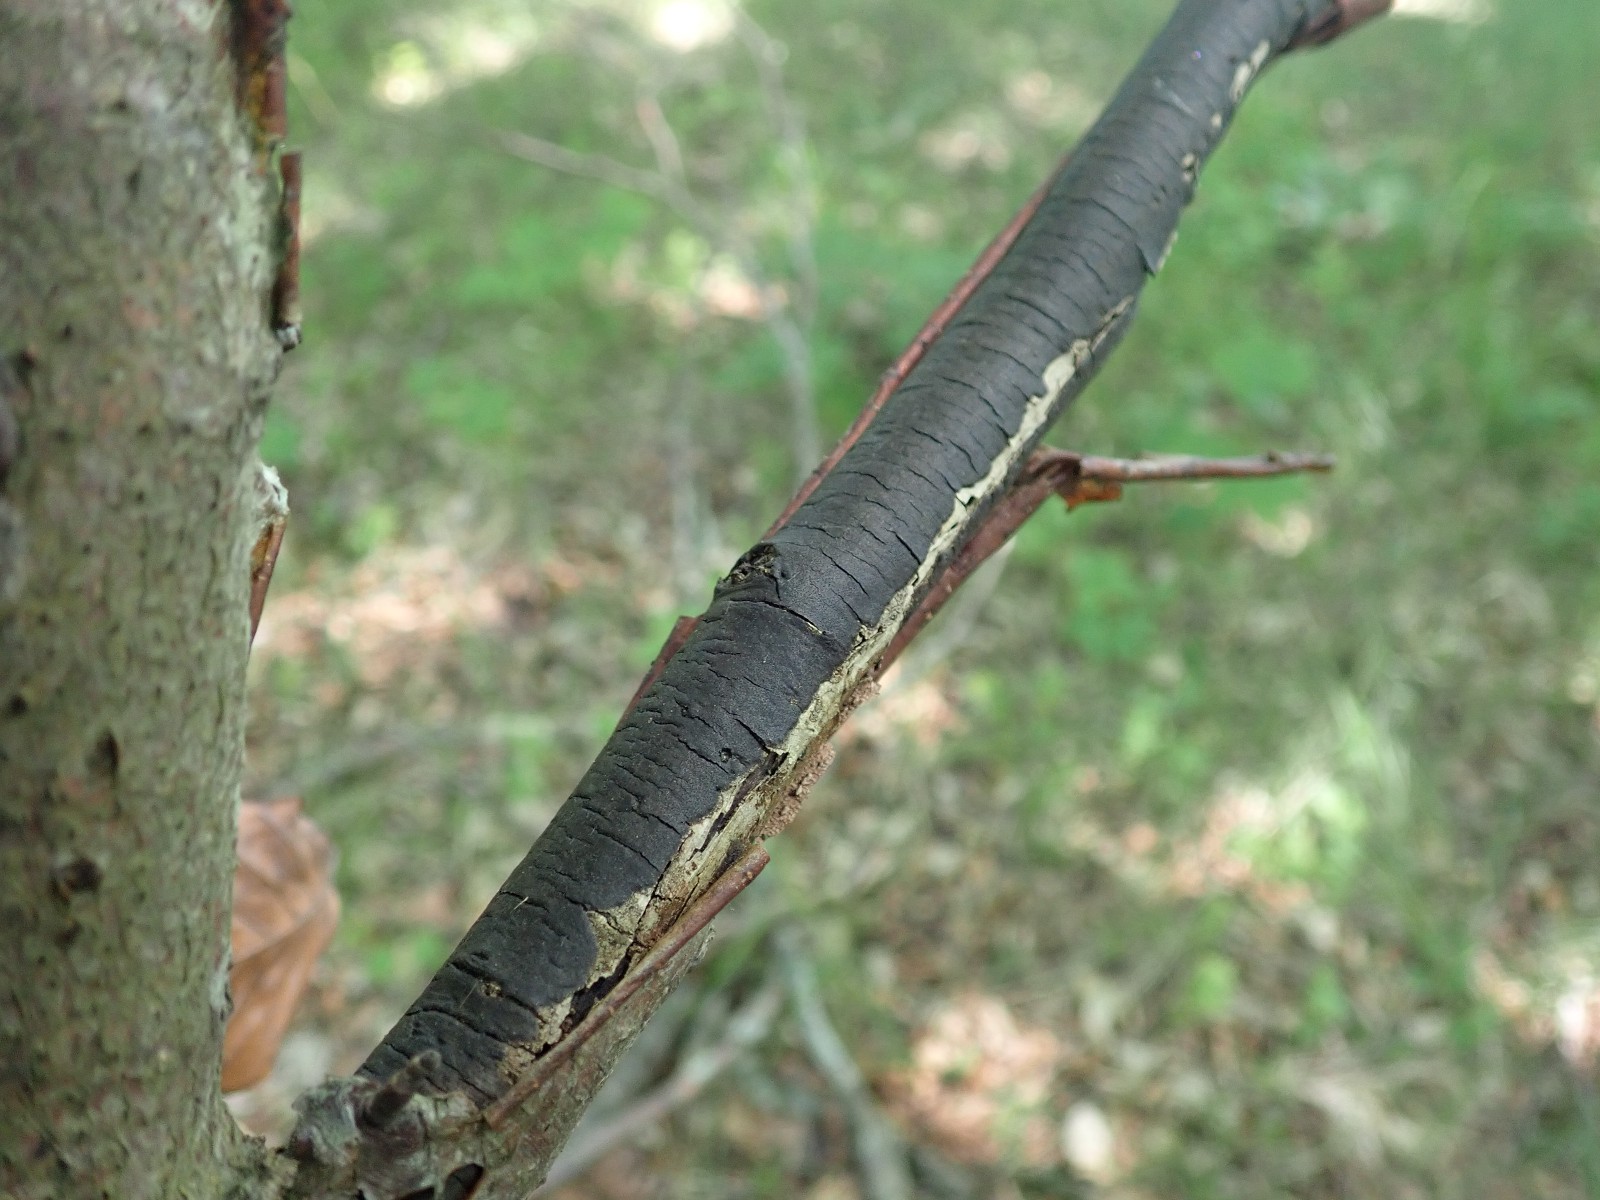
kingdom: Fungi
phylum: Ascomycota
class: Sordariomycetes
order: Xylariales
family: Diatrypaceae
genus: Diatrype
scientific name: Diatrype decorticata
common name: barksprænger-kulskorpe
